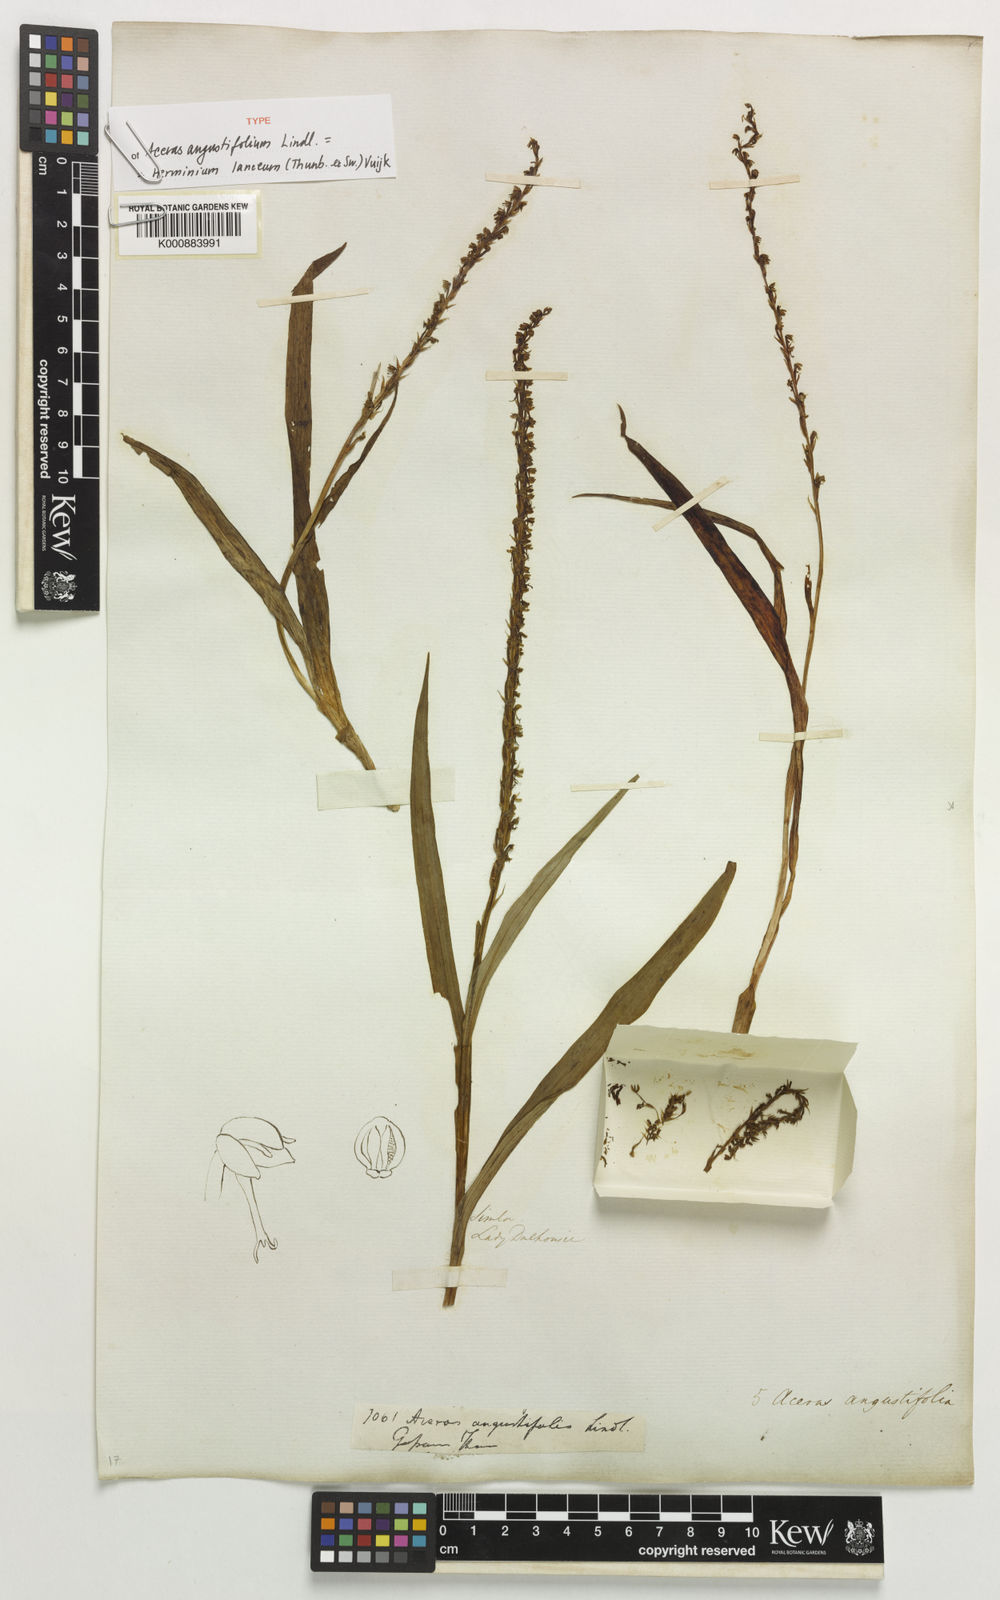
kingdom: Plantae
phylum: Tracheophyta
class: Liliopsida
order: Asparagales
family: Orchidaceae
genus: Herminium
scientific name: Herminium lanceum
